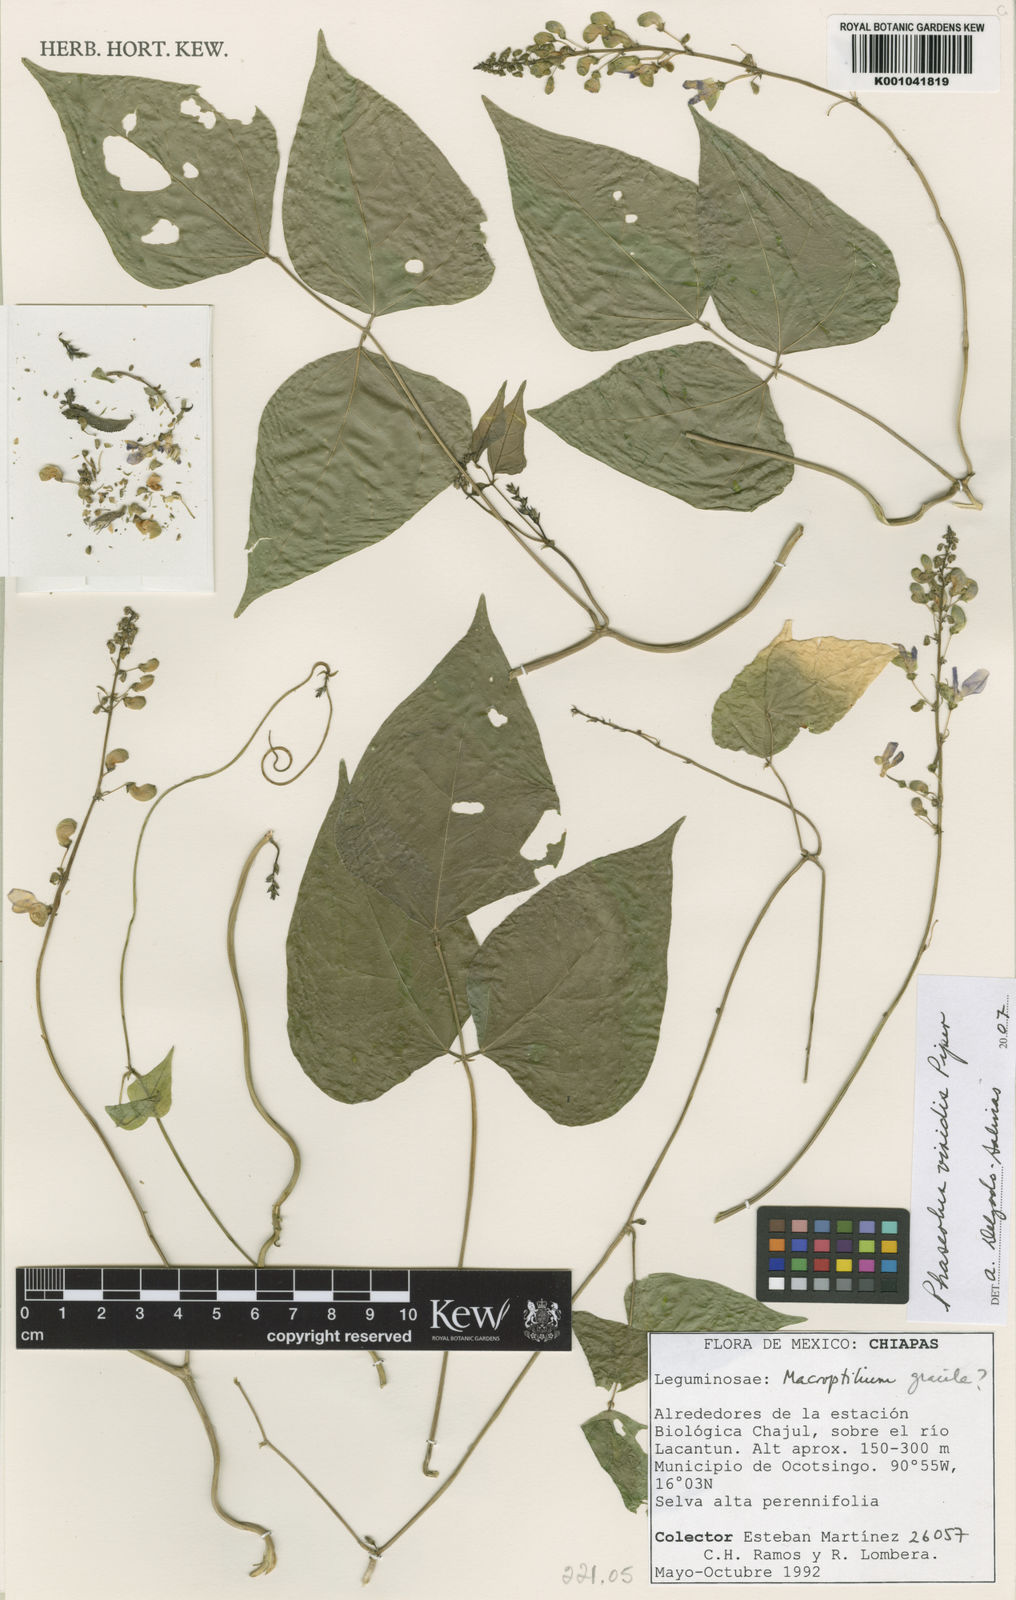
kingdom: Plantae
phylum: Tracheophyta
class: Magnoliopsida
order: Fabales
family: Fabaceae
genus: Phaseolus
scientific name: Phaseolus viridis
